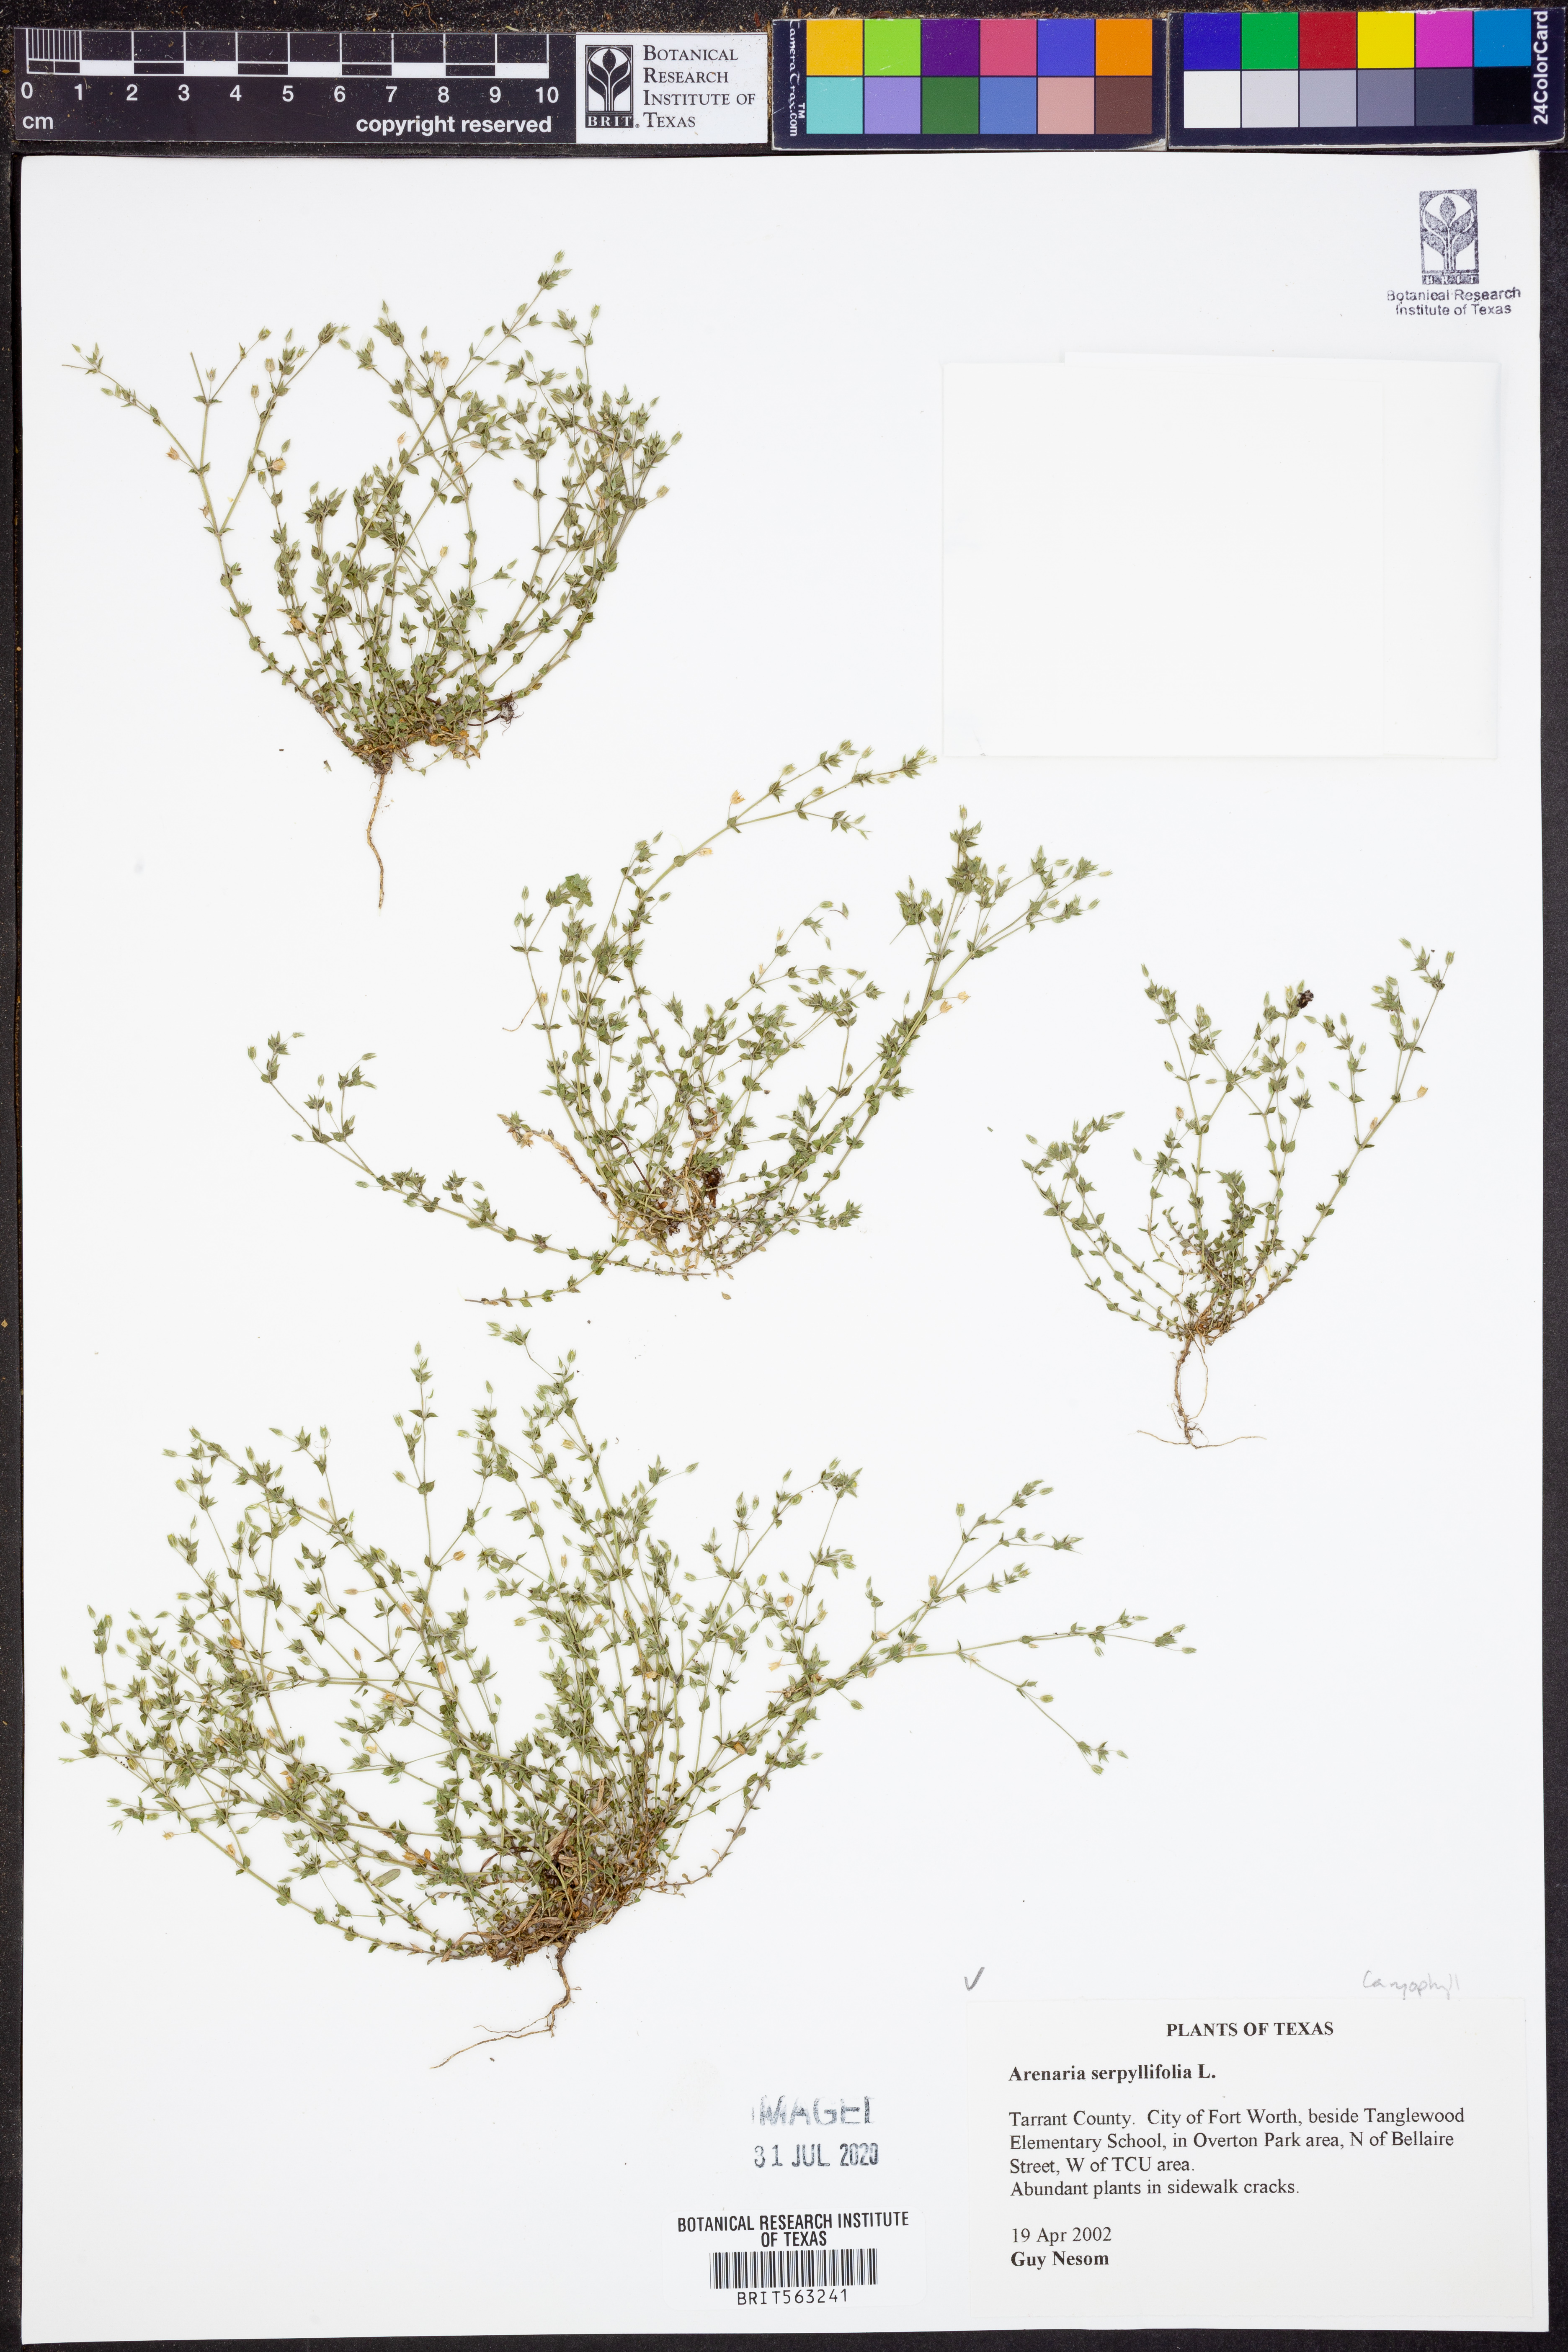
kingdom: Plantae
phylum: Tracheophyta
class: Magnoliopsida
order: Caryophyllales
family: Caryophyllaceae
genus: Arenaria
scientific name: Arenaria serpyllifolia
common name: Thyme-leaved sandwort
